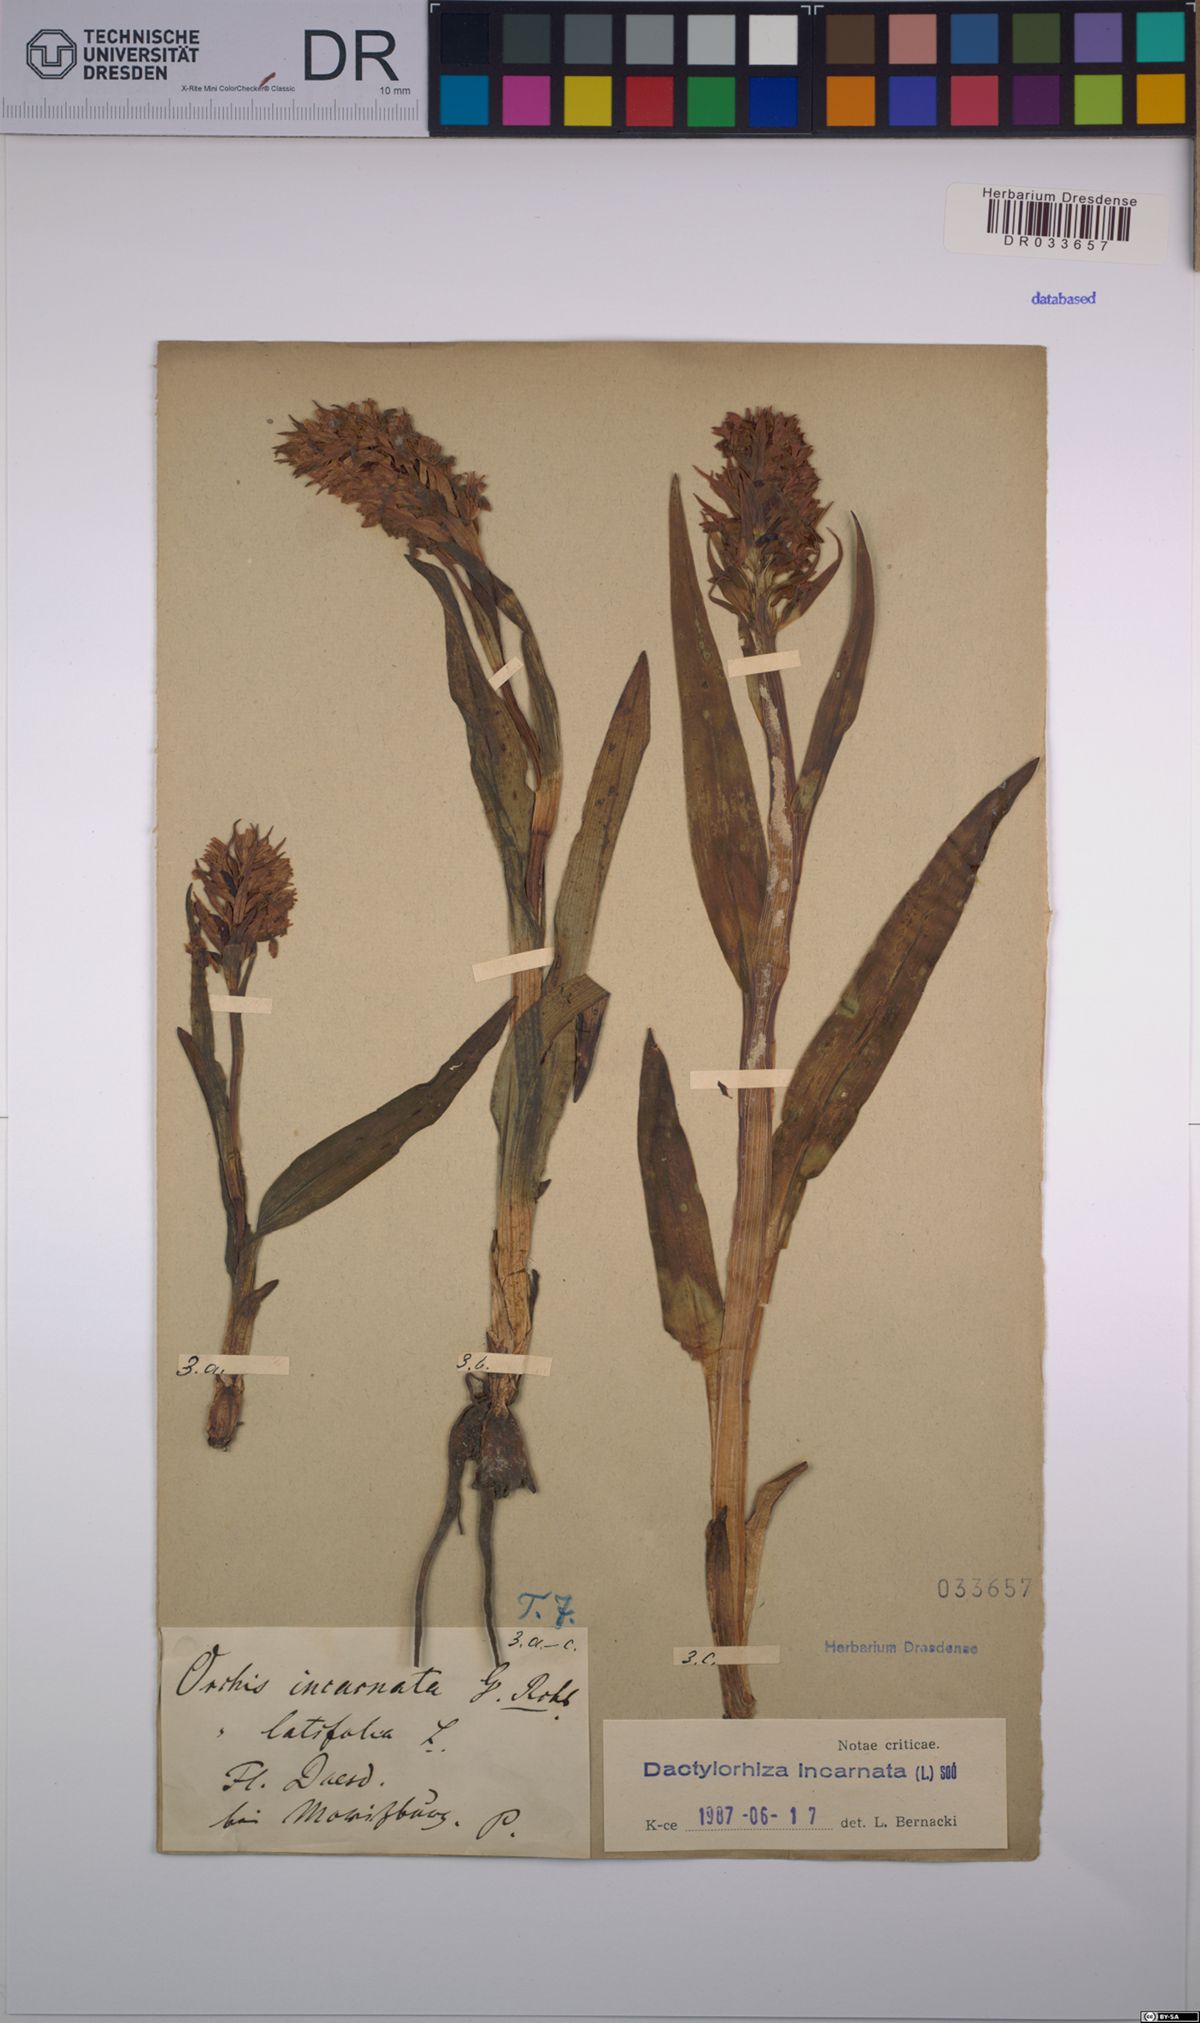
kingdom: Plantae
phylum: Tracheophyta
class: Liliopsida
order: Asparagales
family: Orchidaceae
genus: Dactylorhiza
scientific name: Dactylorhiza incarnata
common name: Early marsh-orchid
